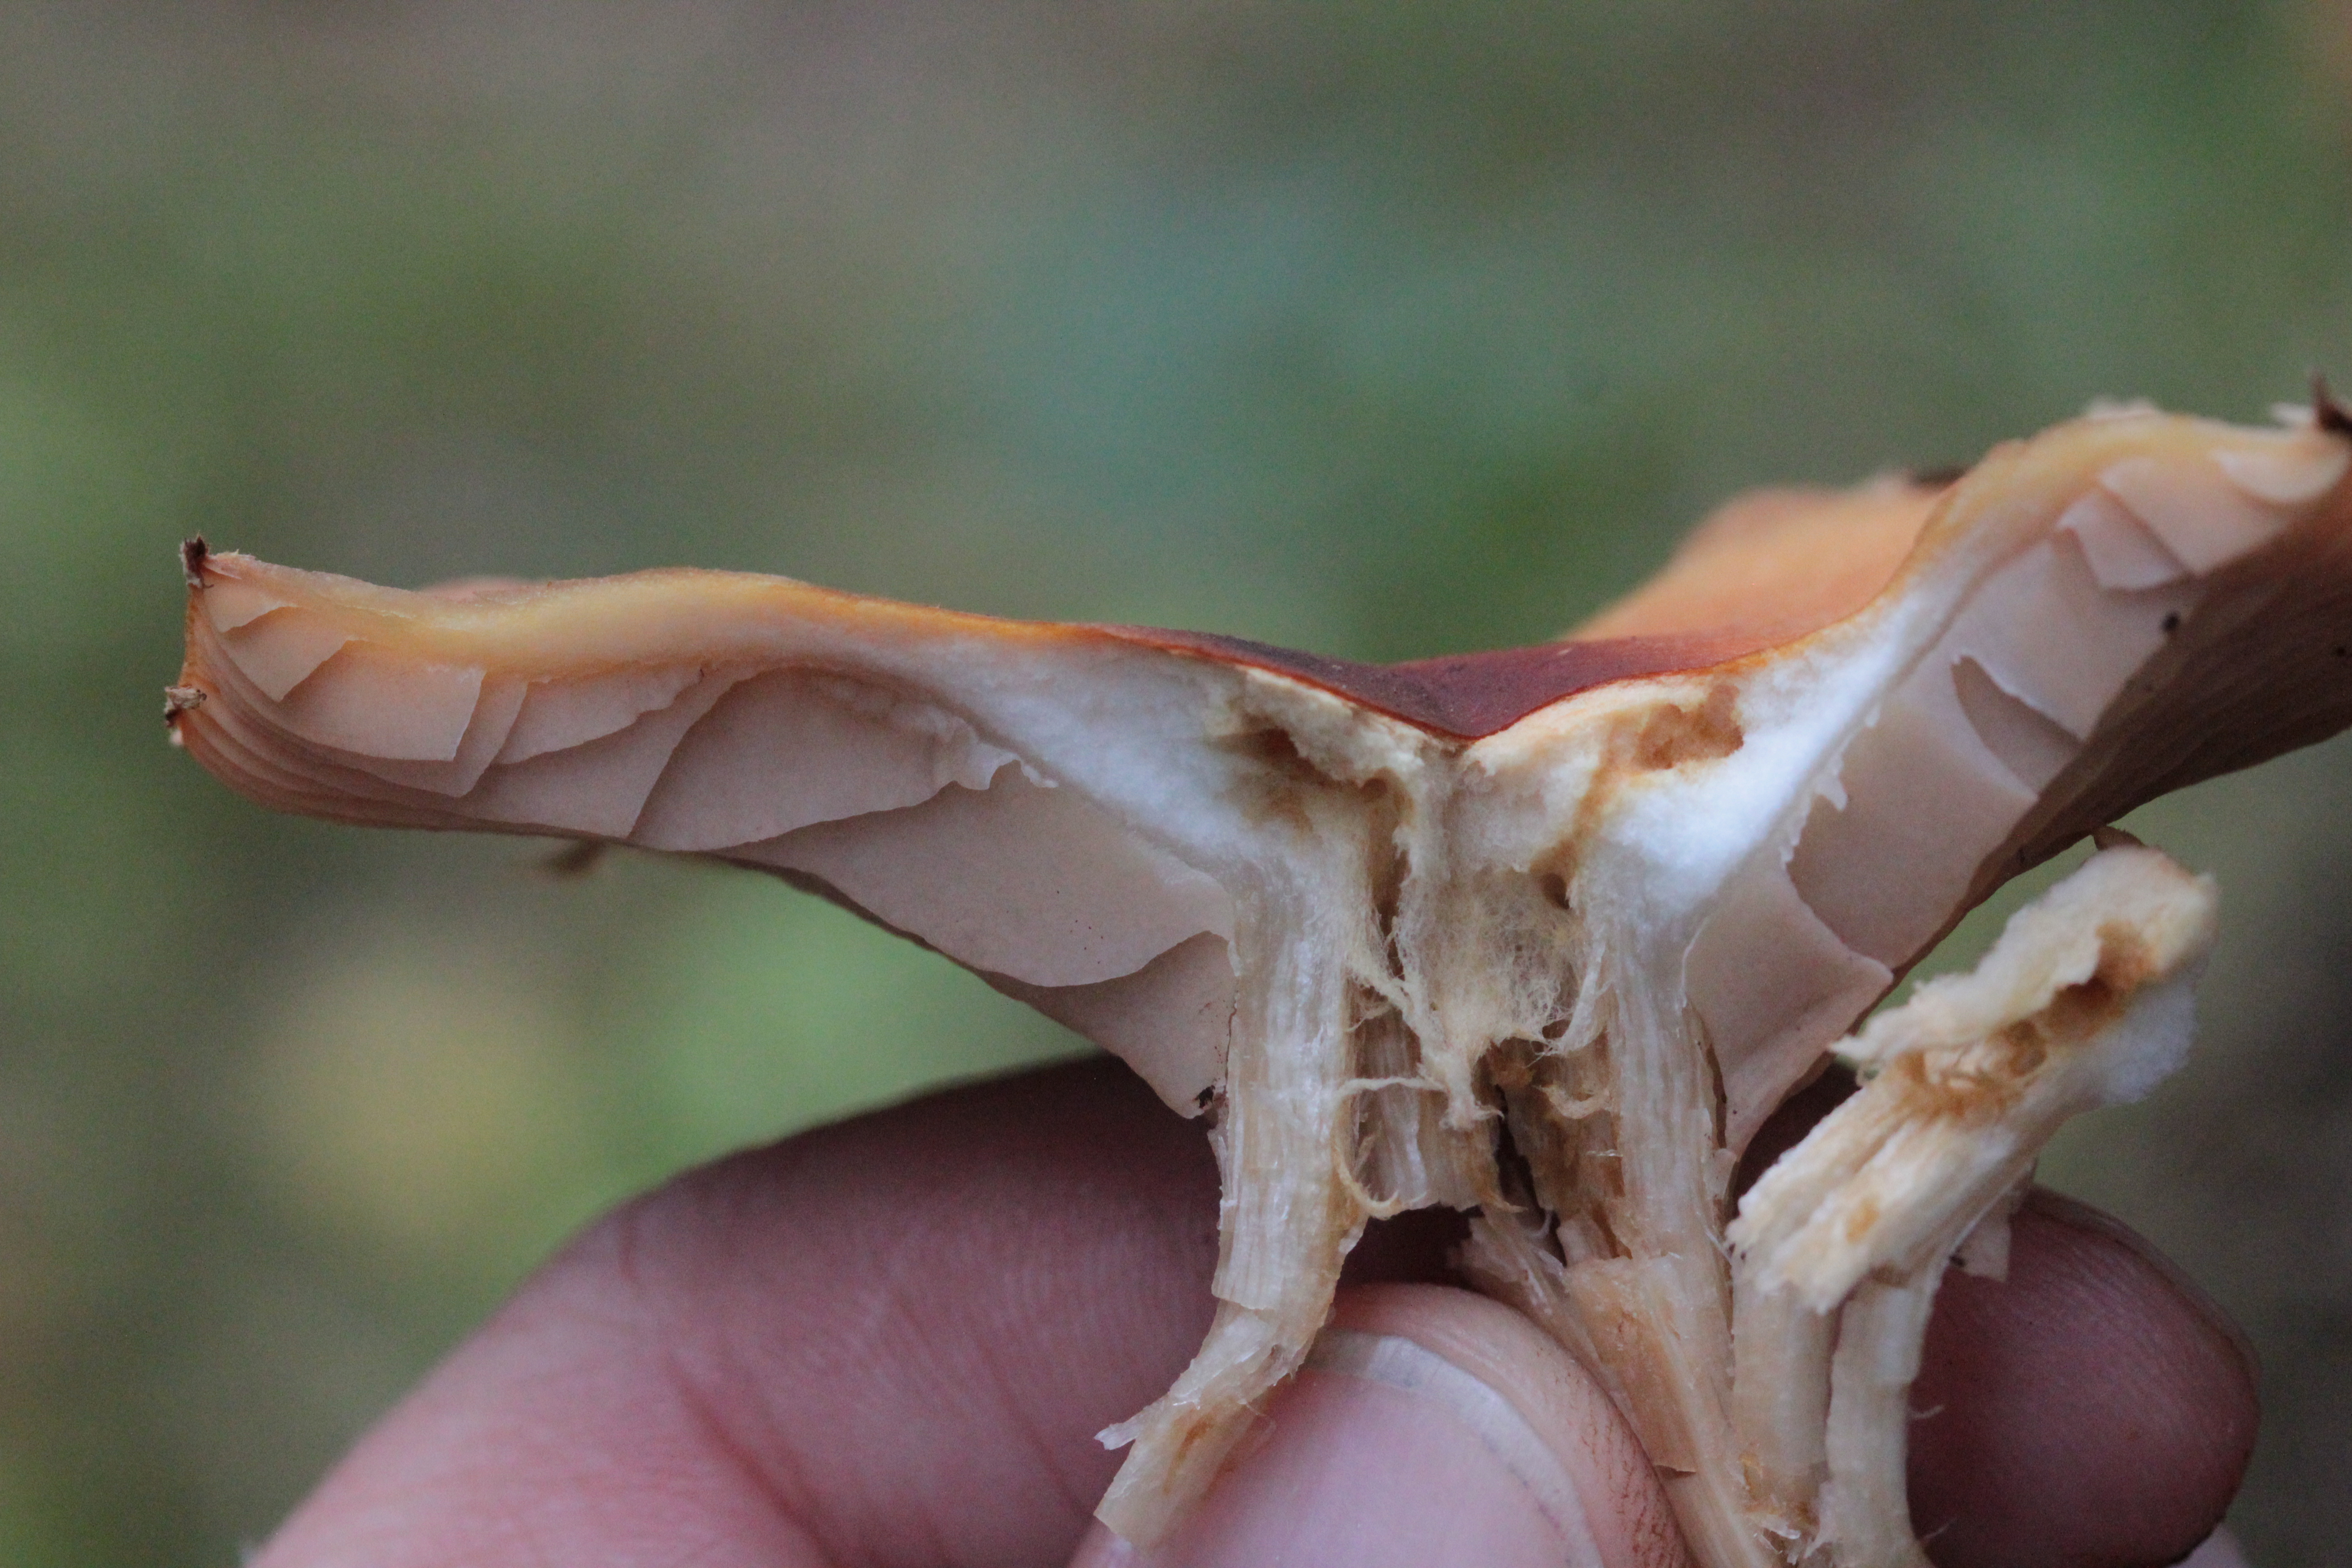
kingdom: Fungi
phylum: Basidiomycota
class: Agaricomycetes
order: Agaricales
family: Strophariaceae
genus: Kuehneromyces
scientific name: Kuehneromyces mutabilis
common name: Sheathed woodtuft
